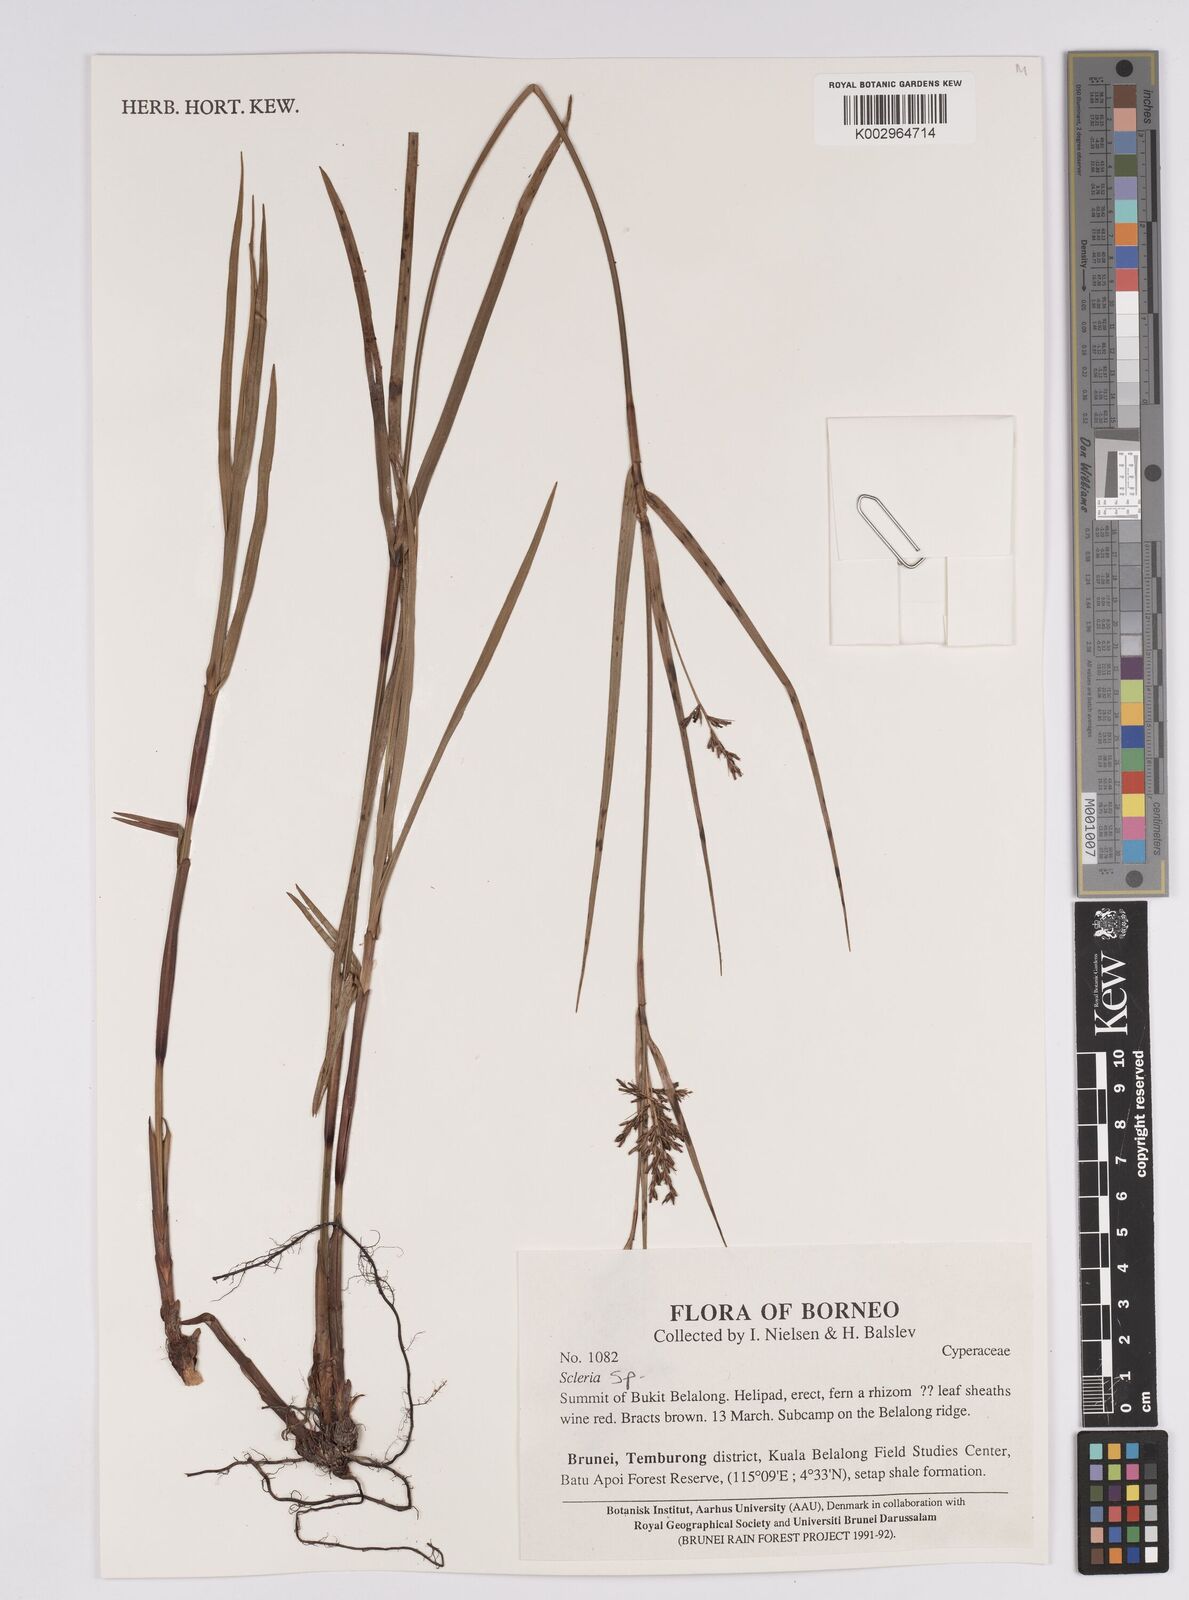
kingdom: Plantae
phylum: Tracheophyta
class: Liliopsida
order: Poales
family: Cyperaceae
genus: Scleria
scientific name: Scleria
